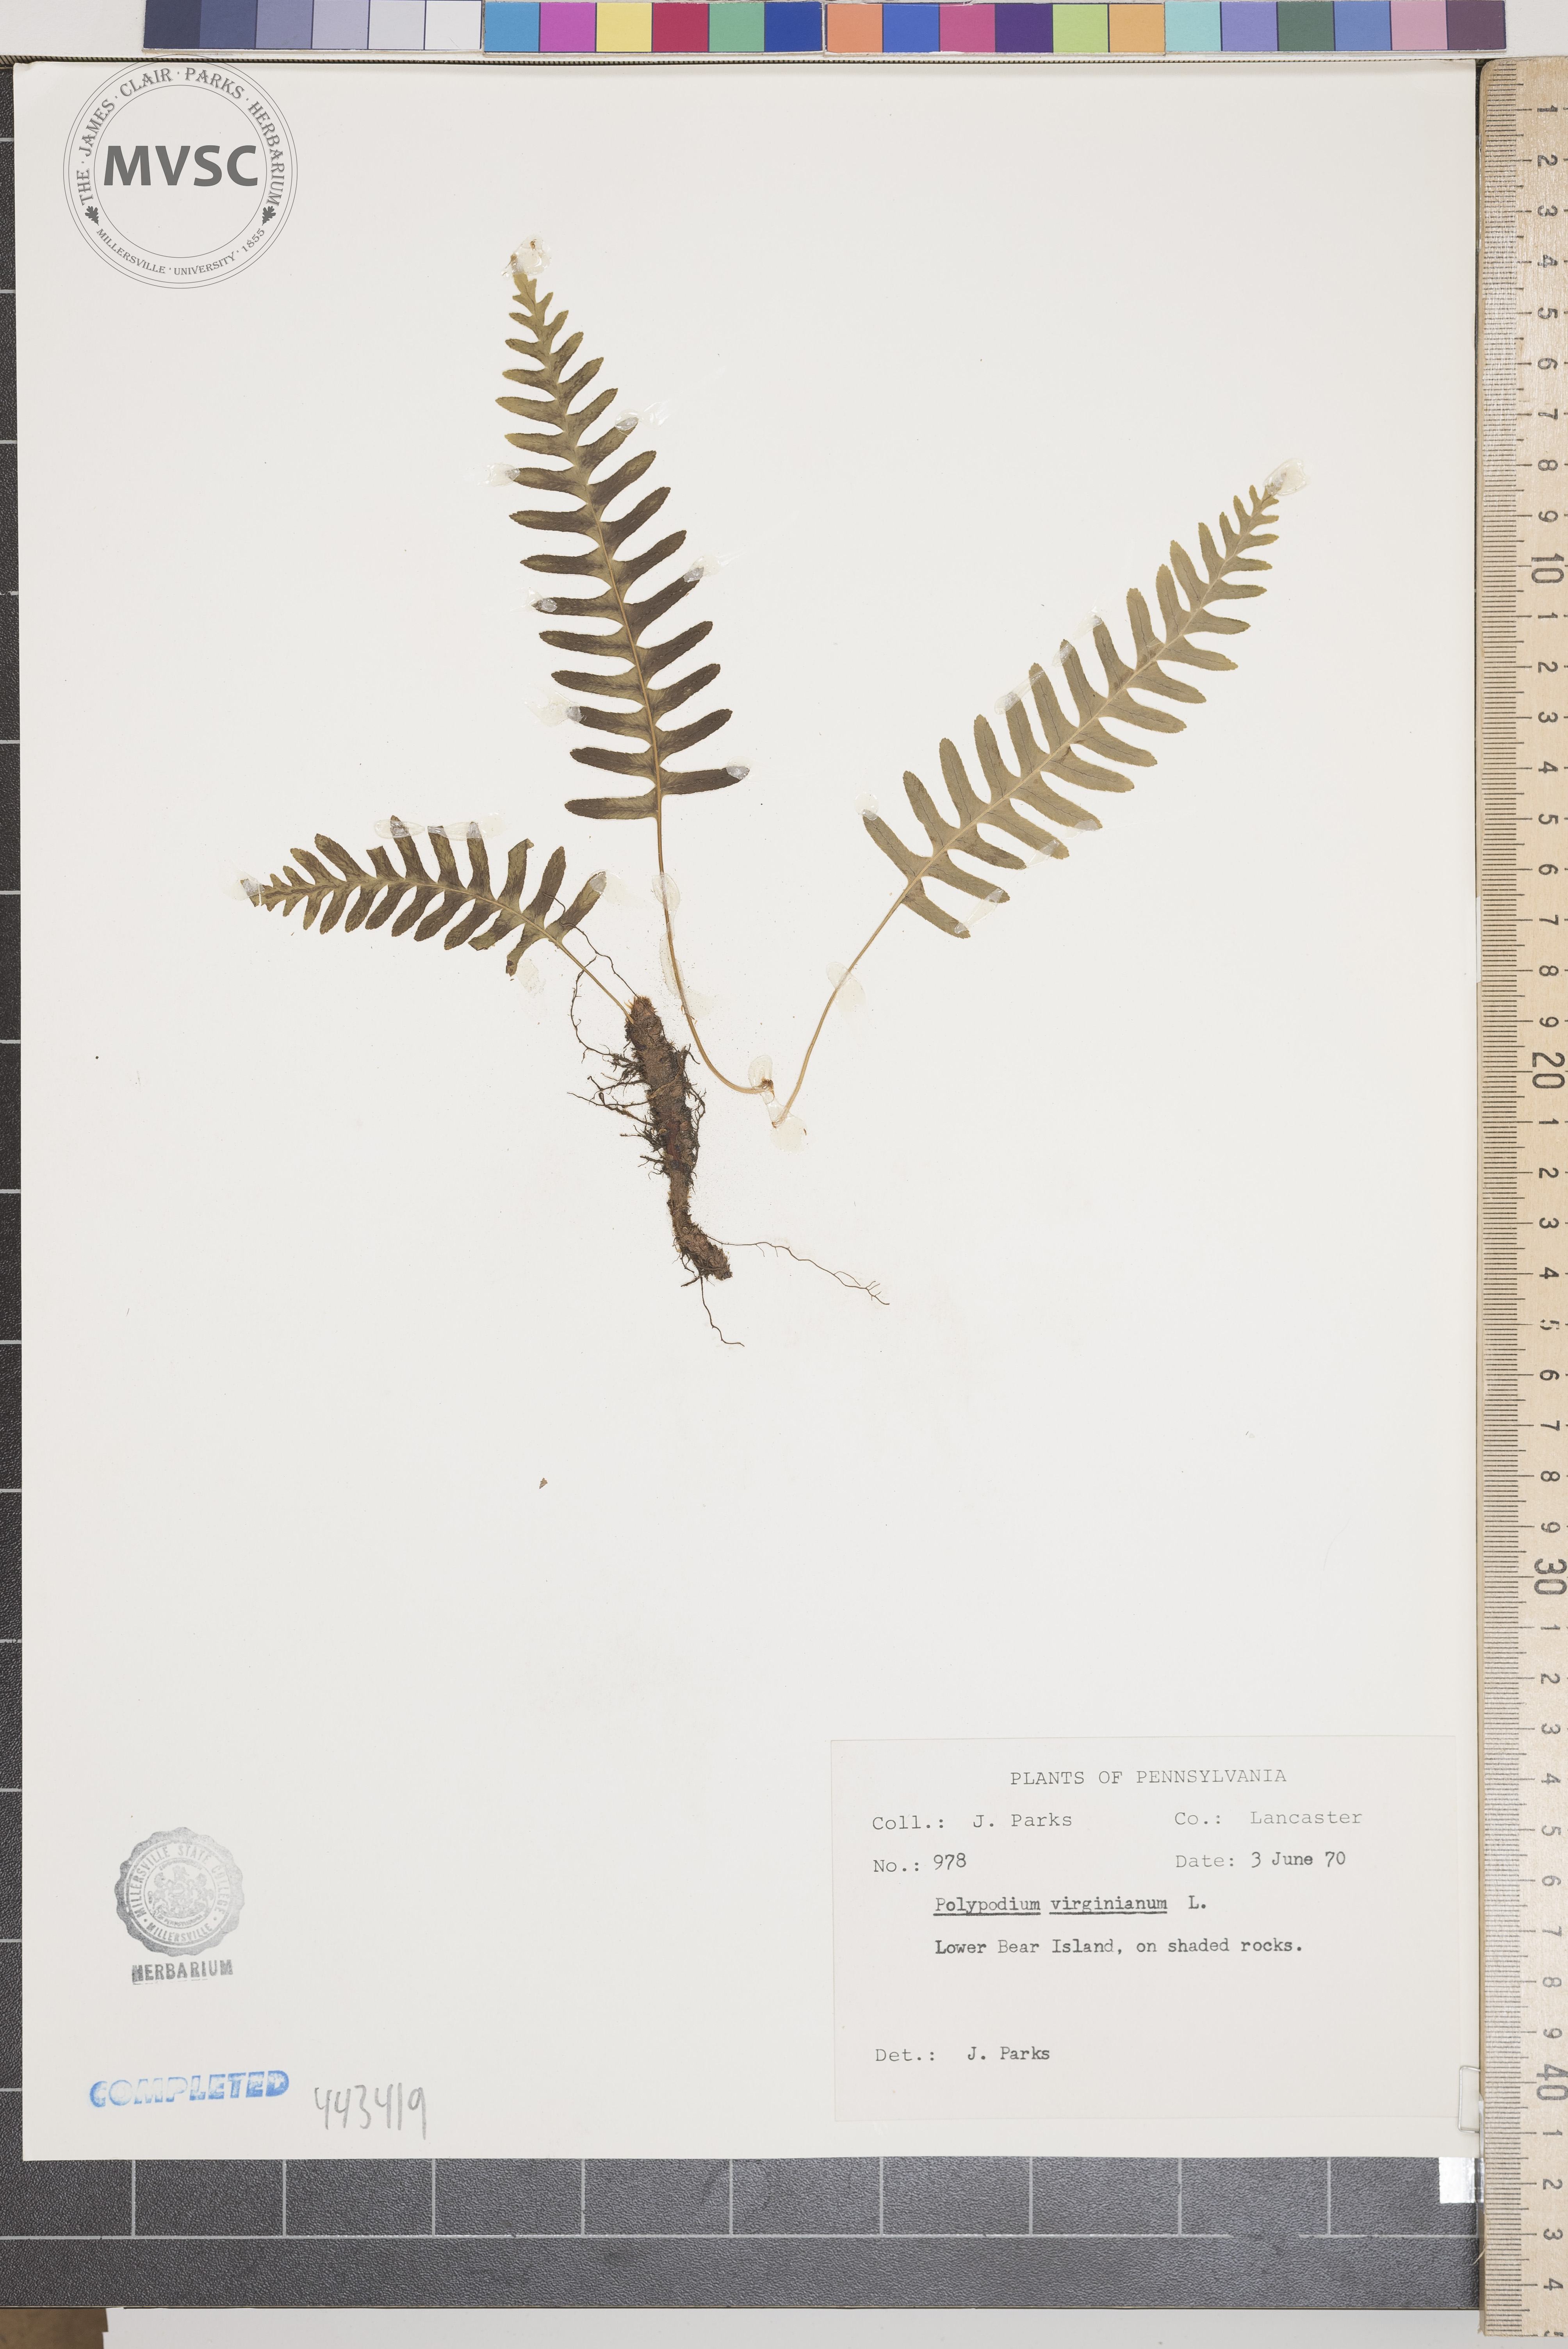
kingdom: Plantae
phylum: Tracheophyta
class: Polypodiopsida
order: Polypodiales
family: Polypodiaceae
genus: Polypodium
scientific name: Polypodium virginianum
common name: American wall fern
